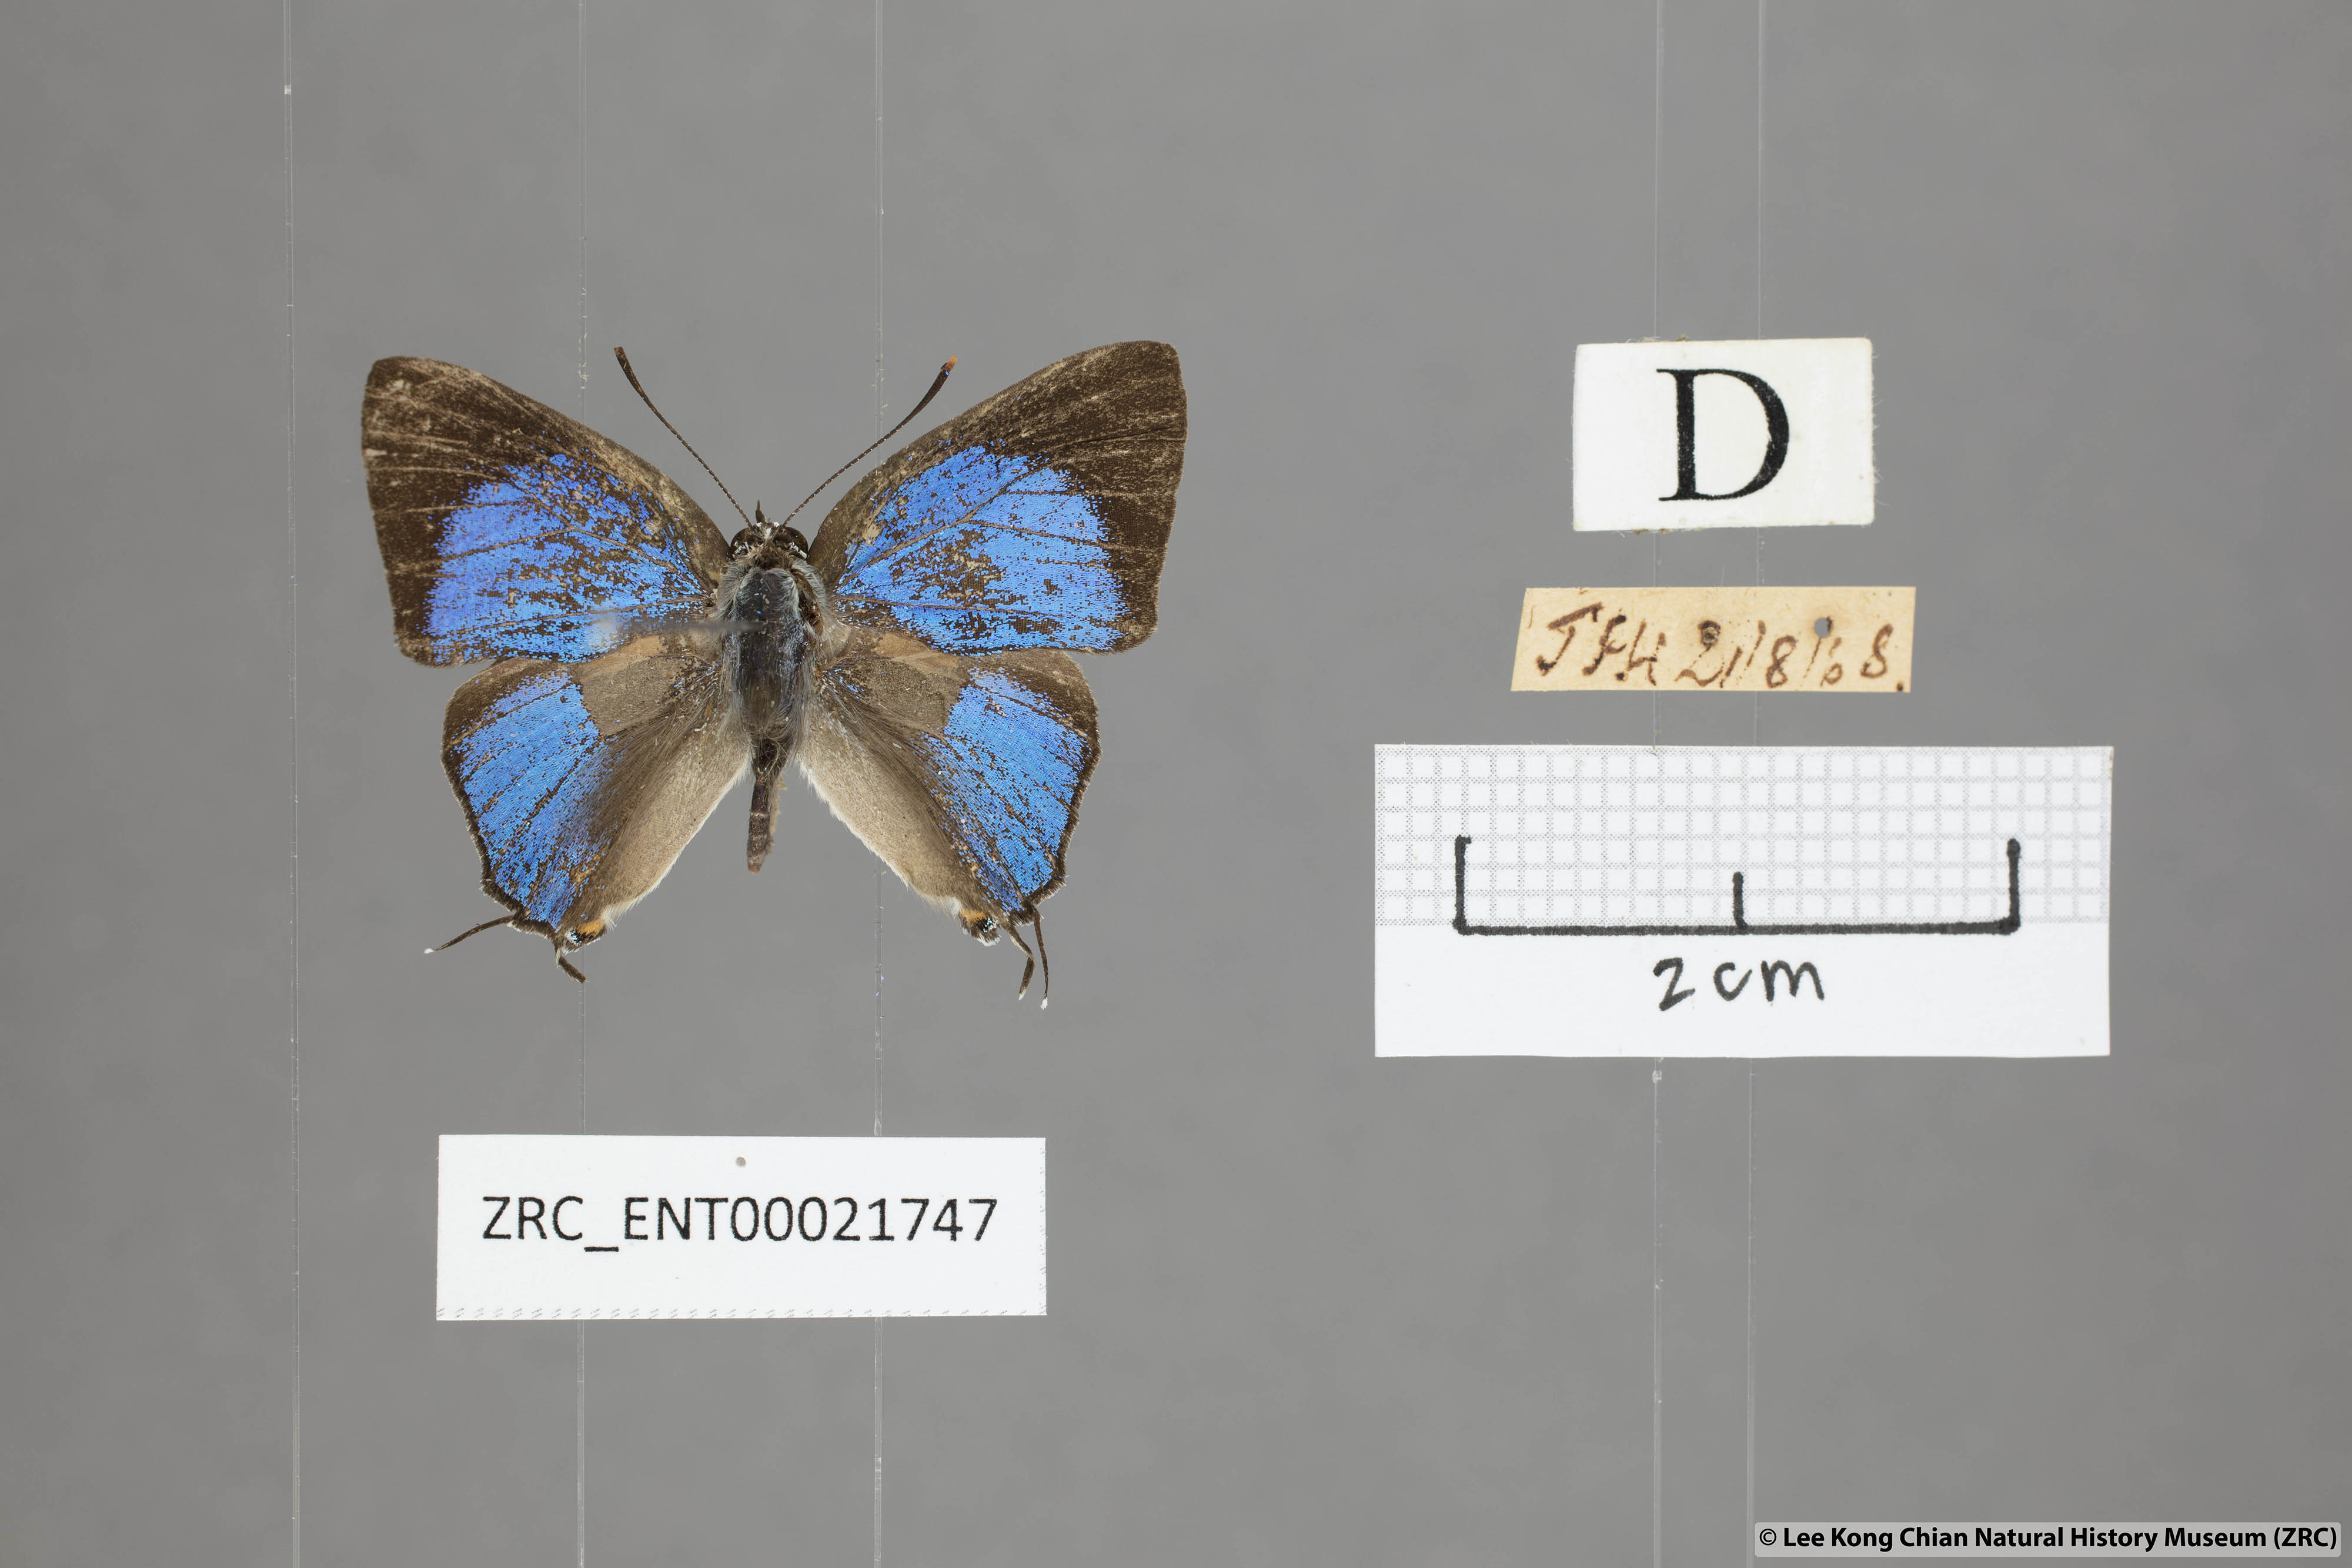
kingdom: Animalia
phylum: Arthropoda
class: Insecta
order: Lepidoptera
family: Lycaenidae
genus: Pratapa
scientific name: Pratapa
